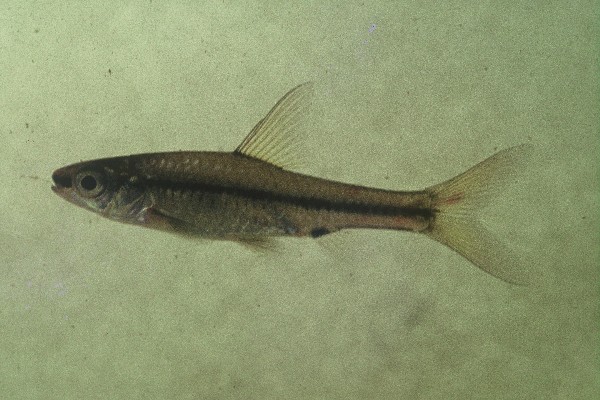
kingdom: Animalia
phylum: Chordata
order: Cypriniformes
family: Cyprinidae
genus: Enteromius
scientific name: Enteromius barnardi
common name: Blackback barb
